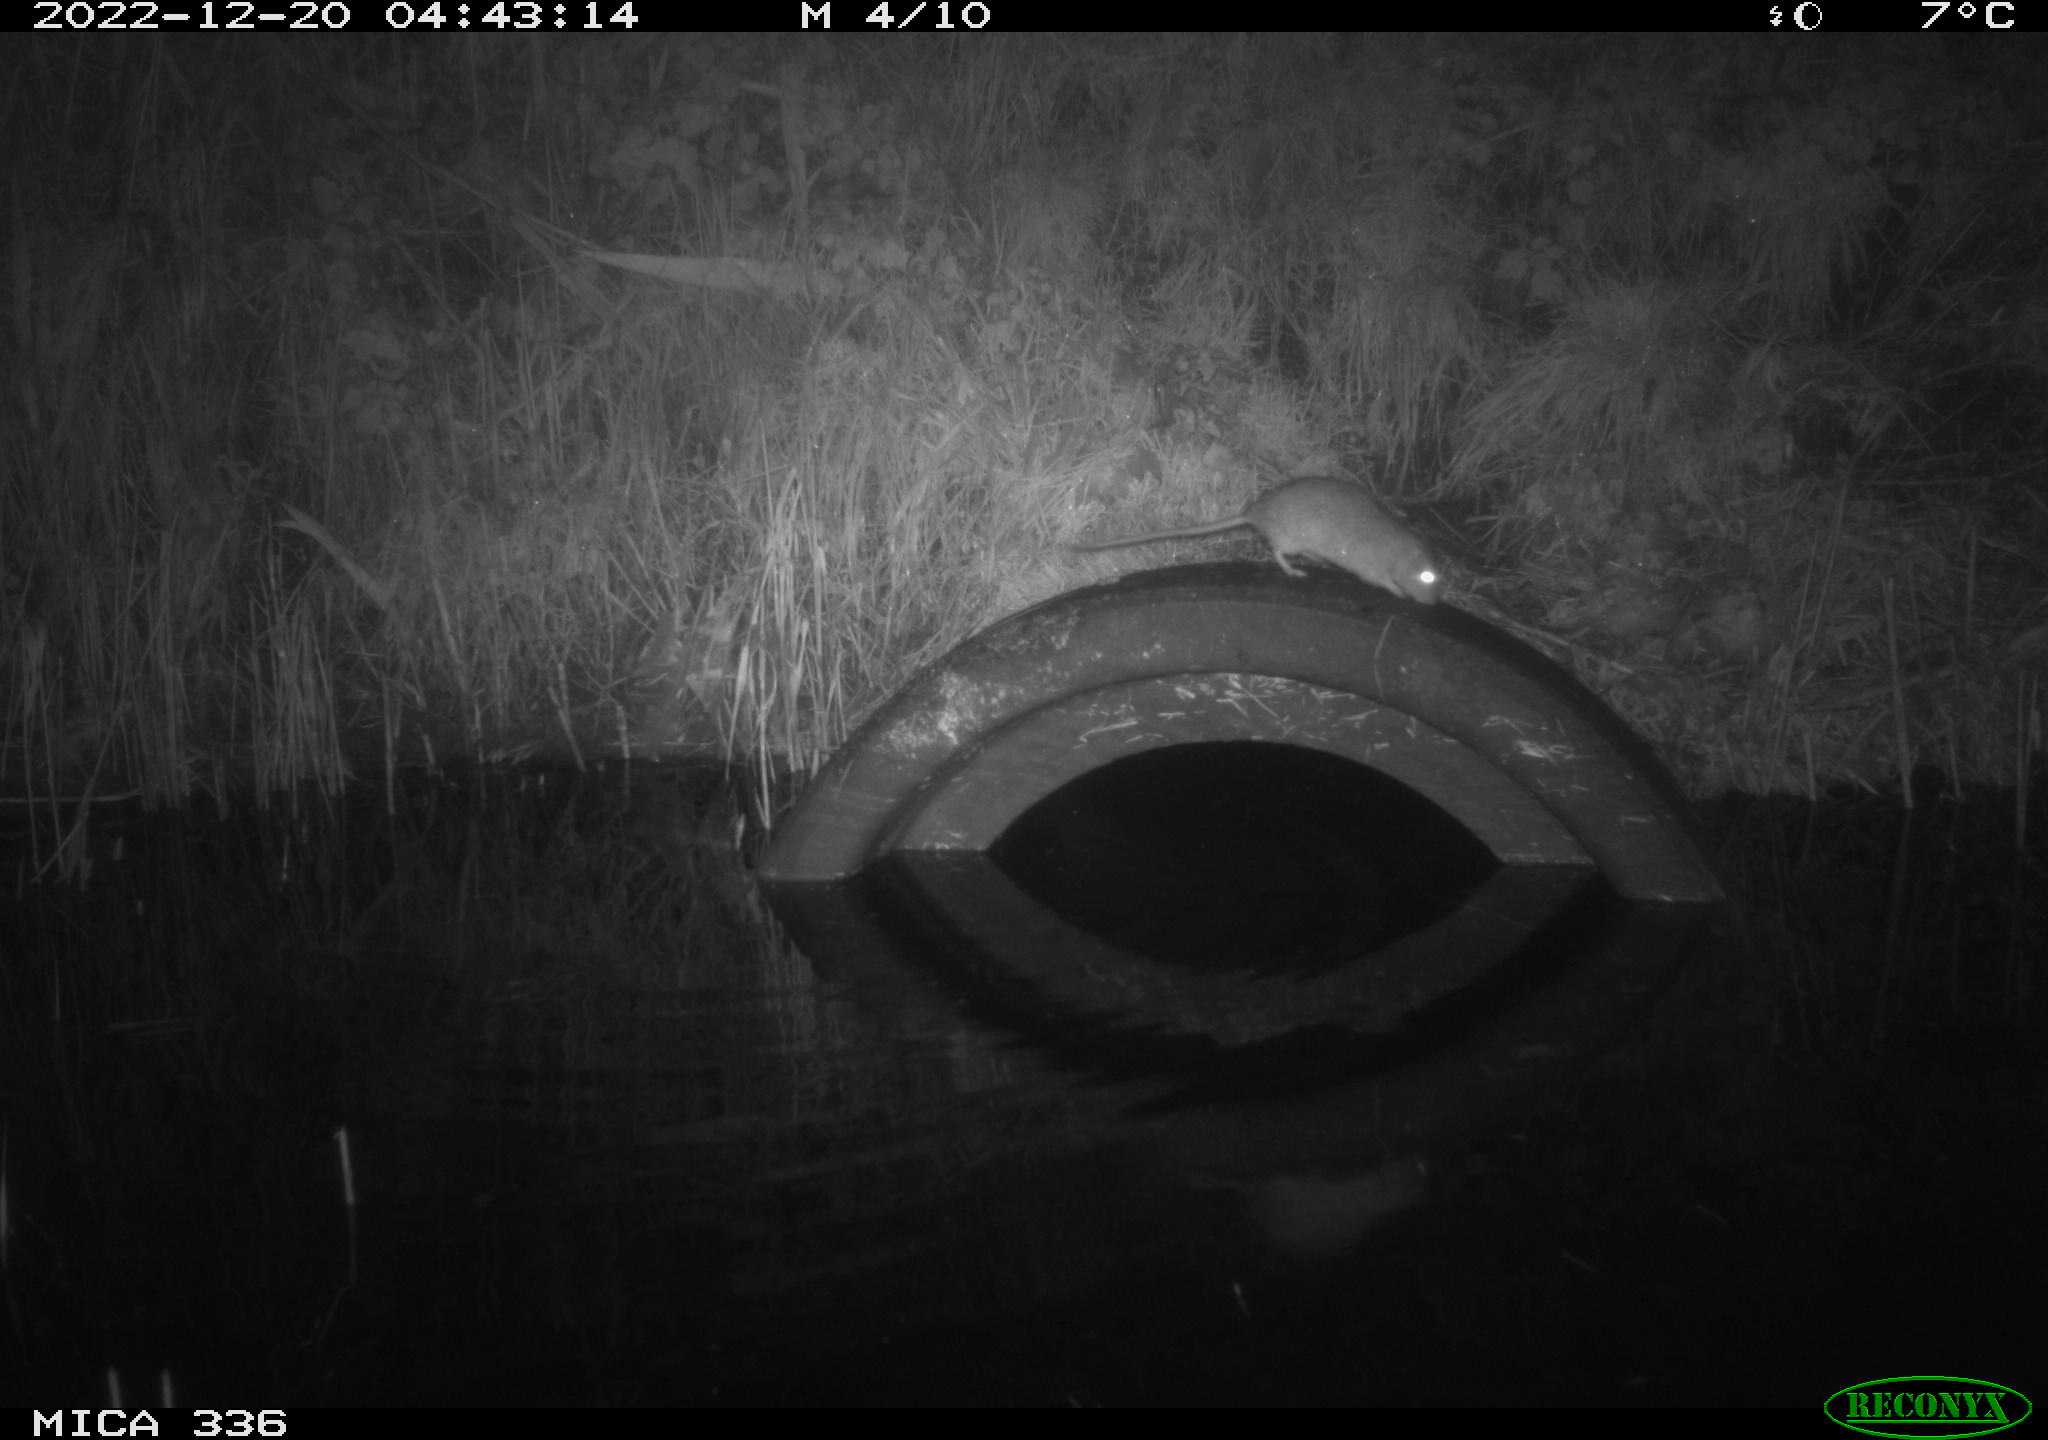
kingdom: Animalia
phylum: Chordata
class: Mammalia
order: Rodentia
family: Muridae
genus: Rattus
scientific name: Rattus norvegicus
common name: Brown rat
